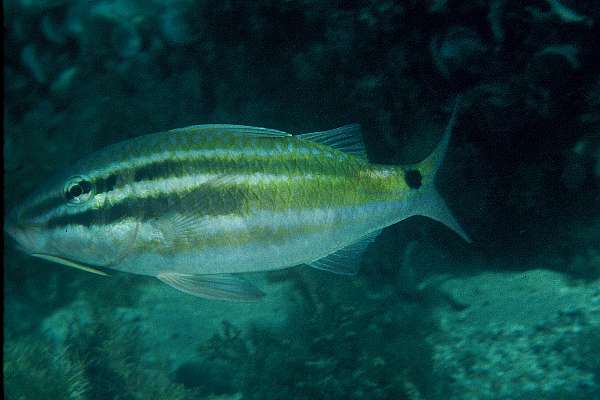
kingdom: Animalia
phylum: Chordata
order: Perciformes
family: Mullidae
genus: Parupeneus
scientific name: Parupeneus spilurus
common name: Blackspot goatfish
